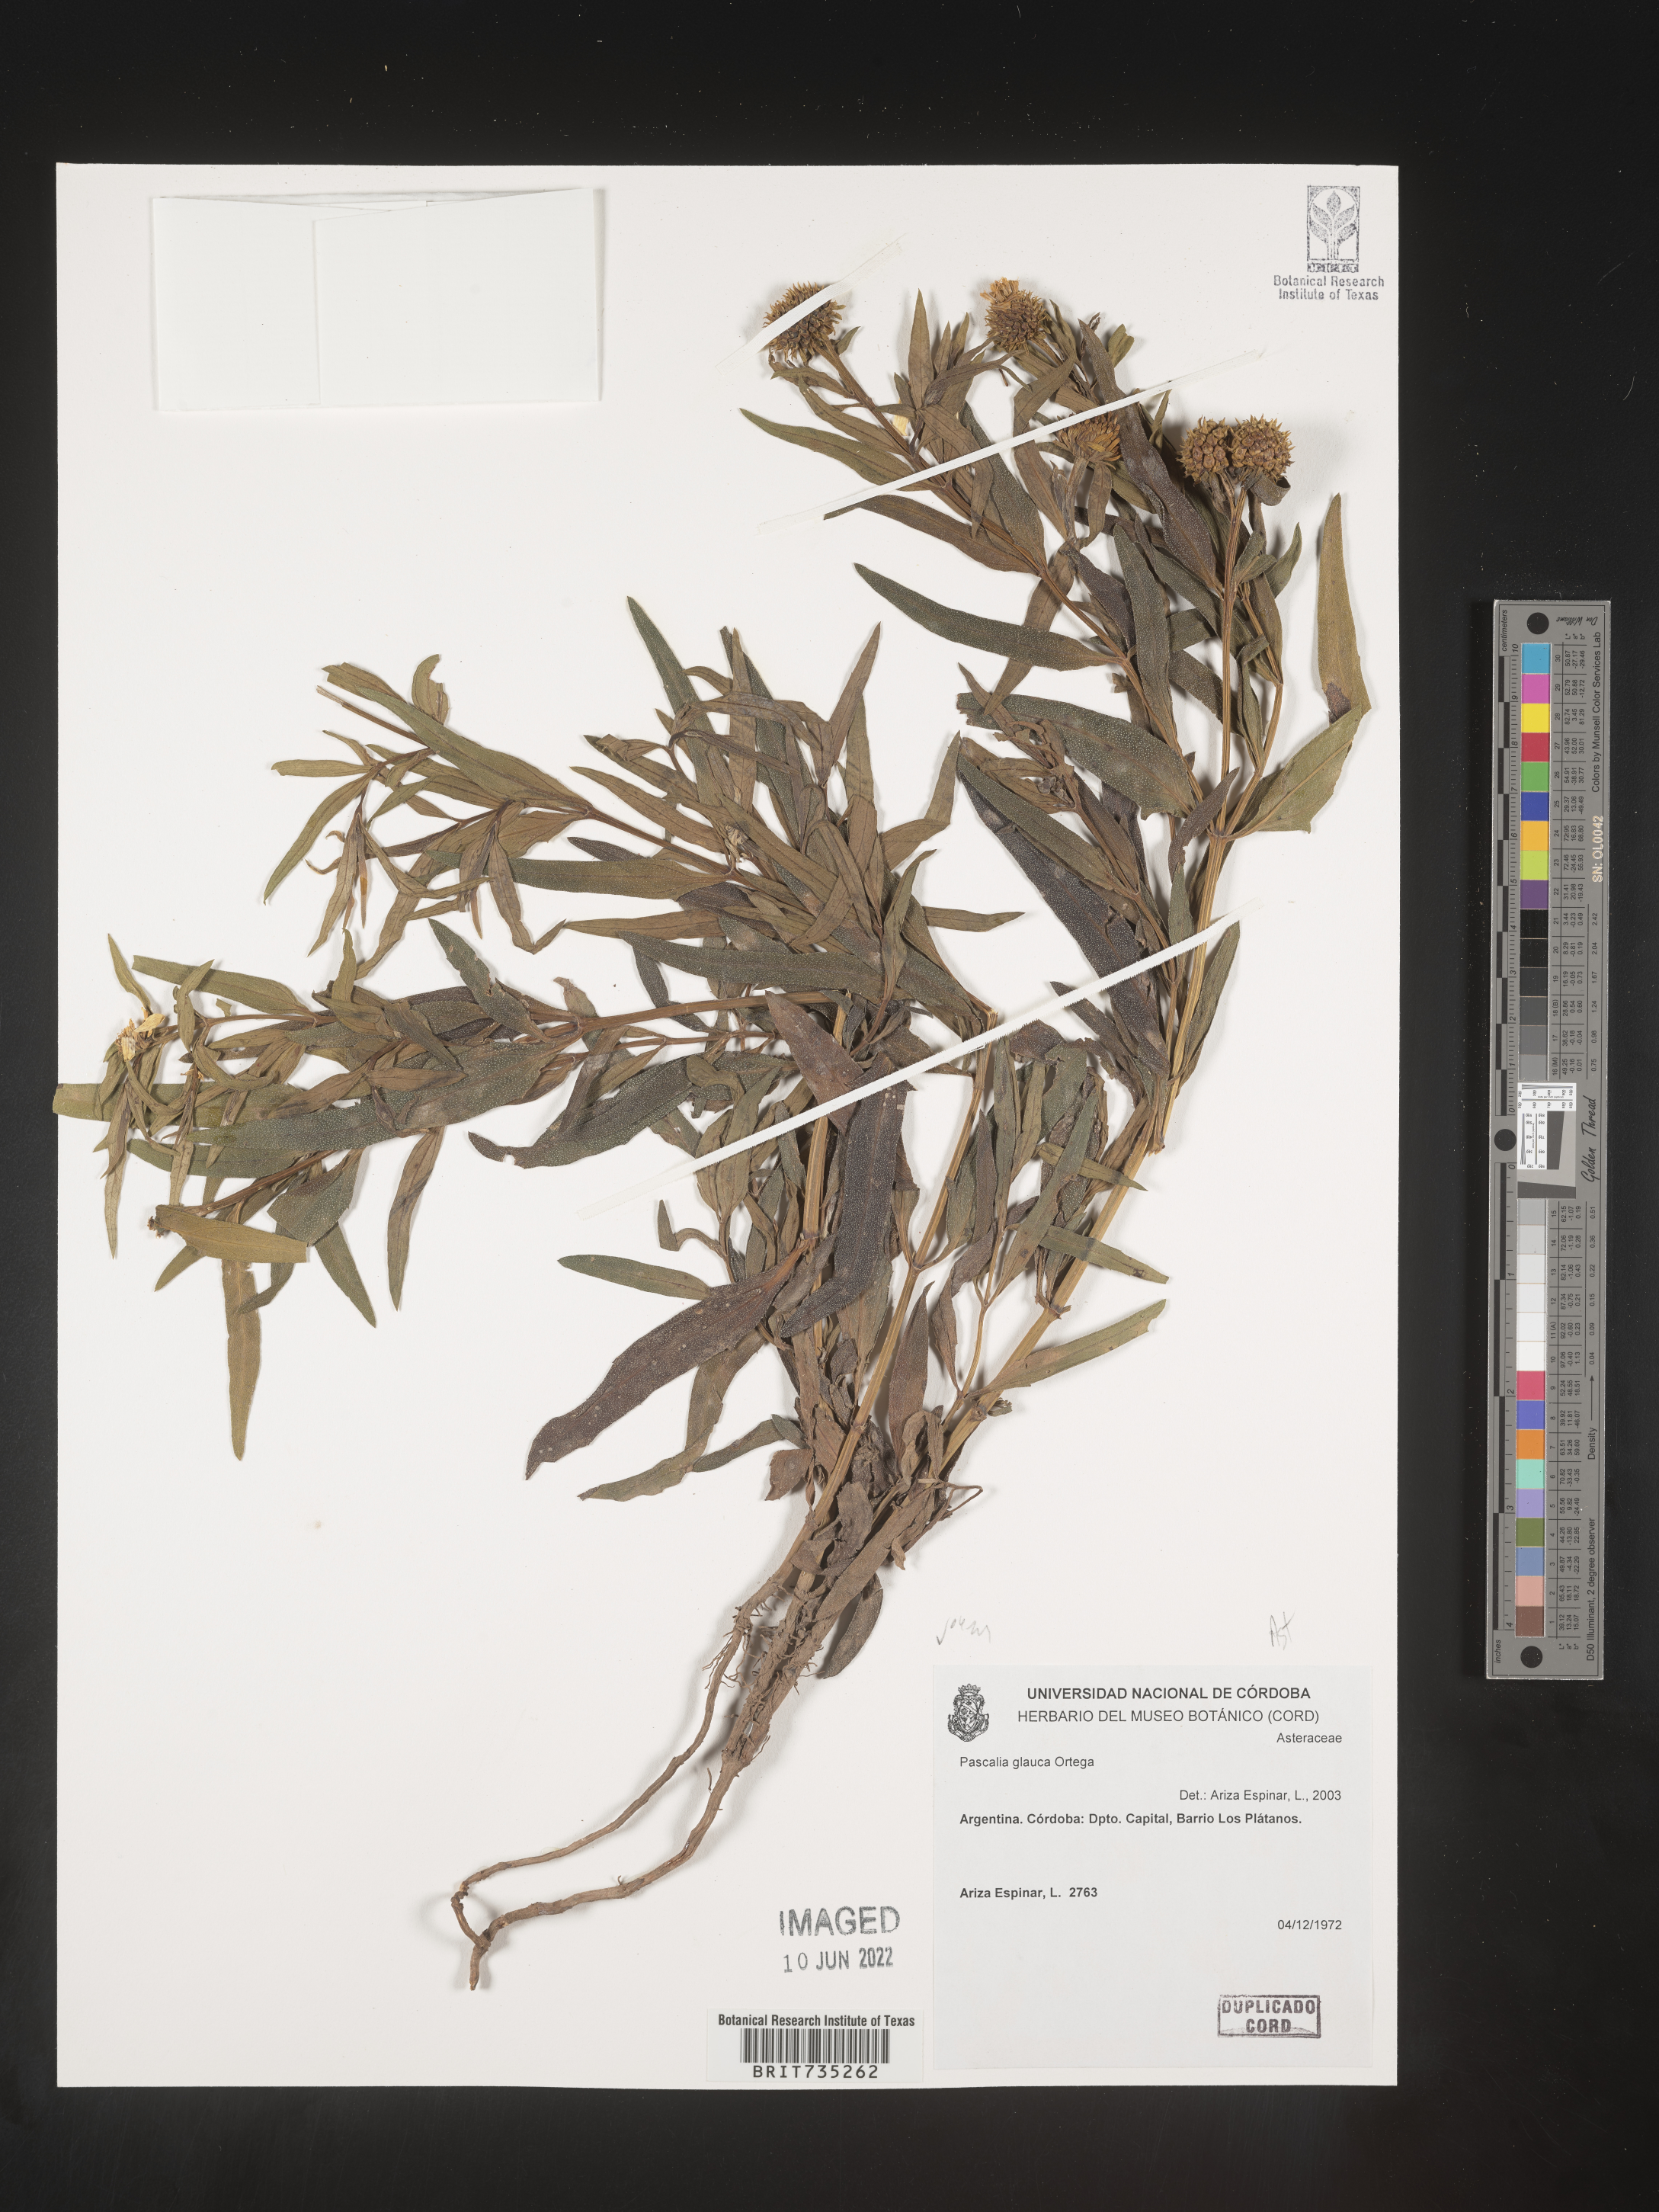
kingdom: Plantae
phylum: Tracheophyta
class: Magnoliopsida
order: Asterales
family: Asteraceae
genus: Pascalia
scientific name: Pascalia
